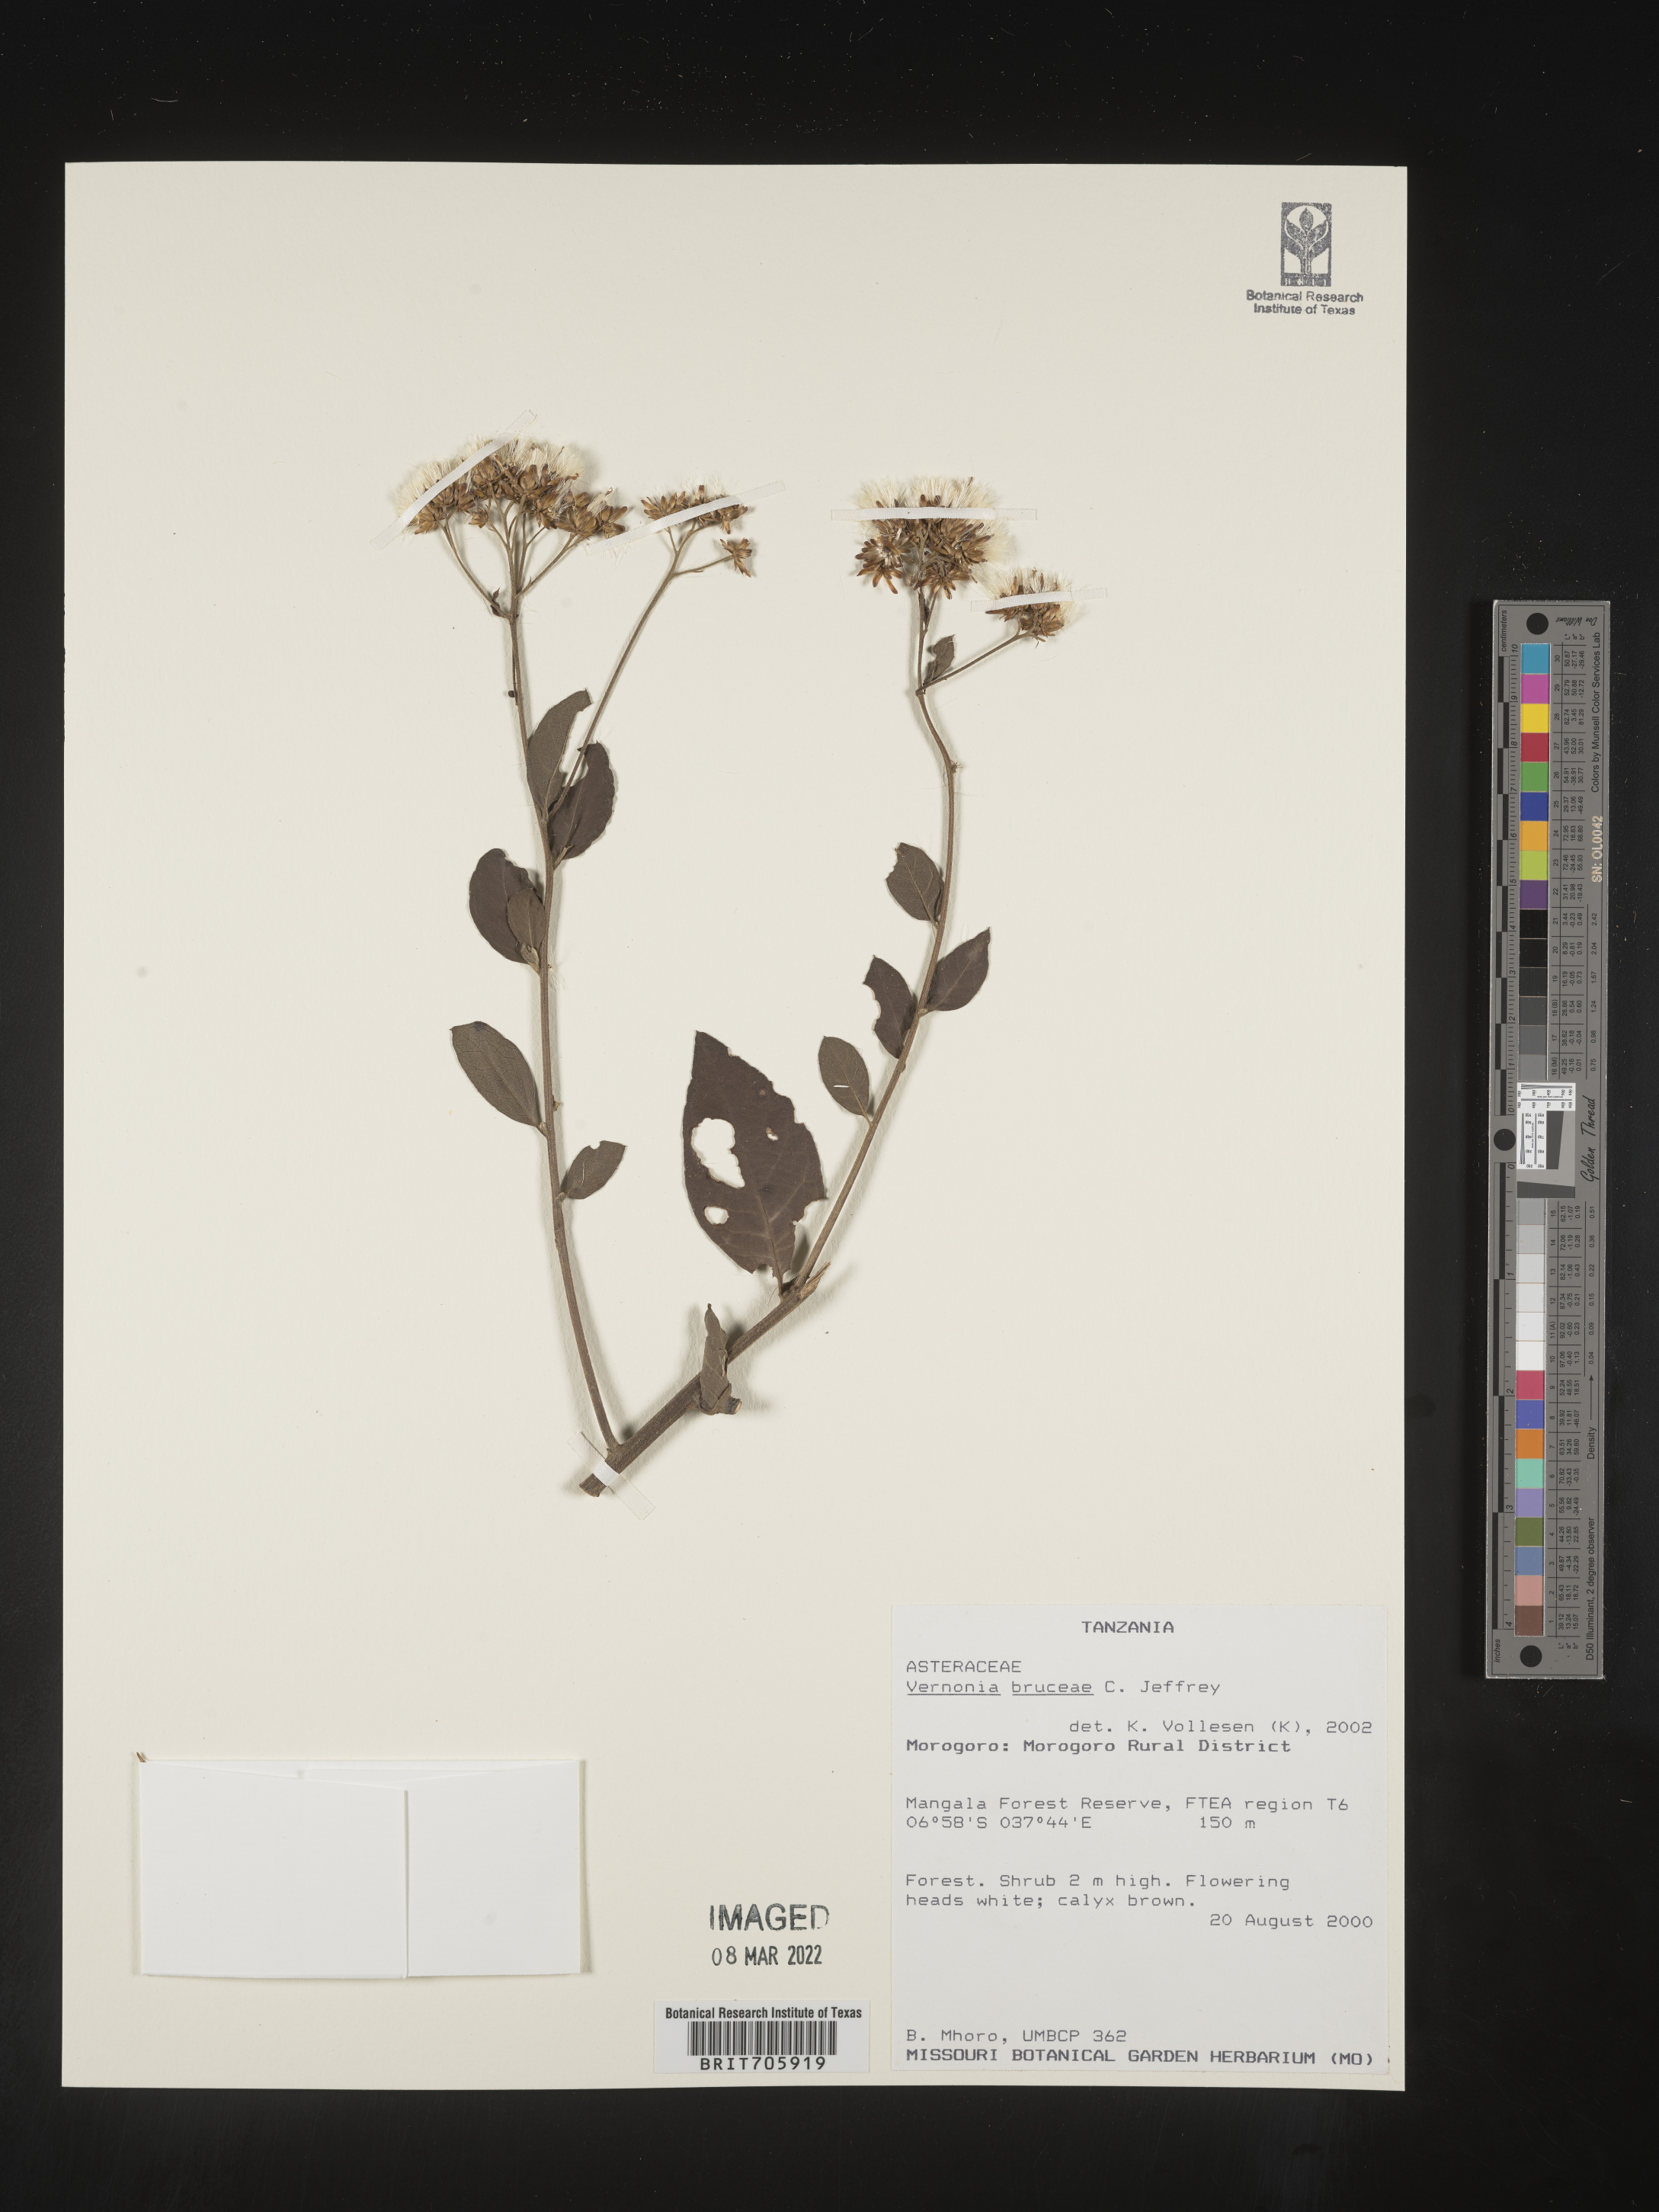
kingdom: Plantae
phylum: Tracheophyta
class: Magnoliopsida
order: Asterales
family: Asteraceae
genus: Vernonia
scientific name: Vernonia
